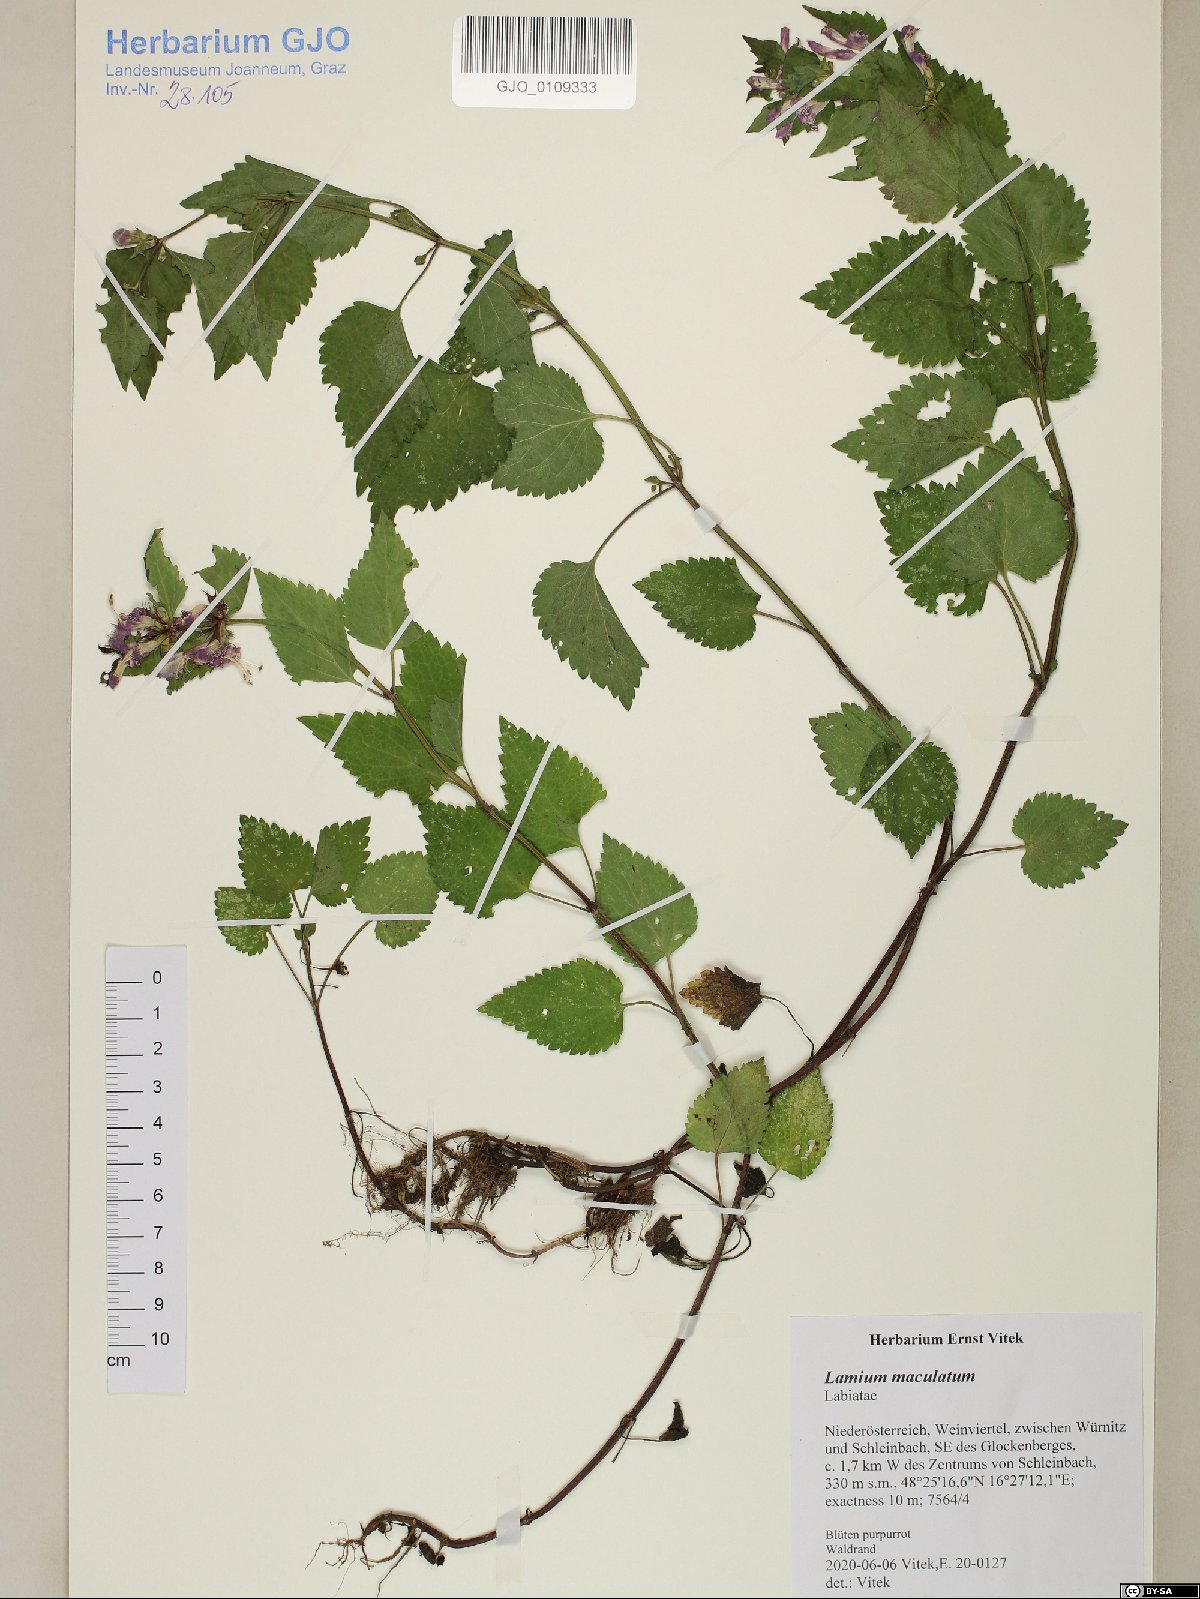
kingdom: Plantae
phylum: Tracheophyta
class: Magnoliopsida
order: Lamiales
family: Lamiaceae
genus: Lamium
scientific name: Lamium maculatum
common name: Spotted dead-nettle
